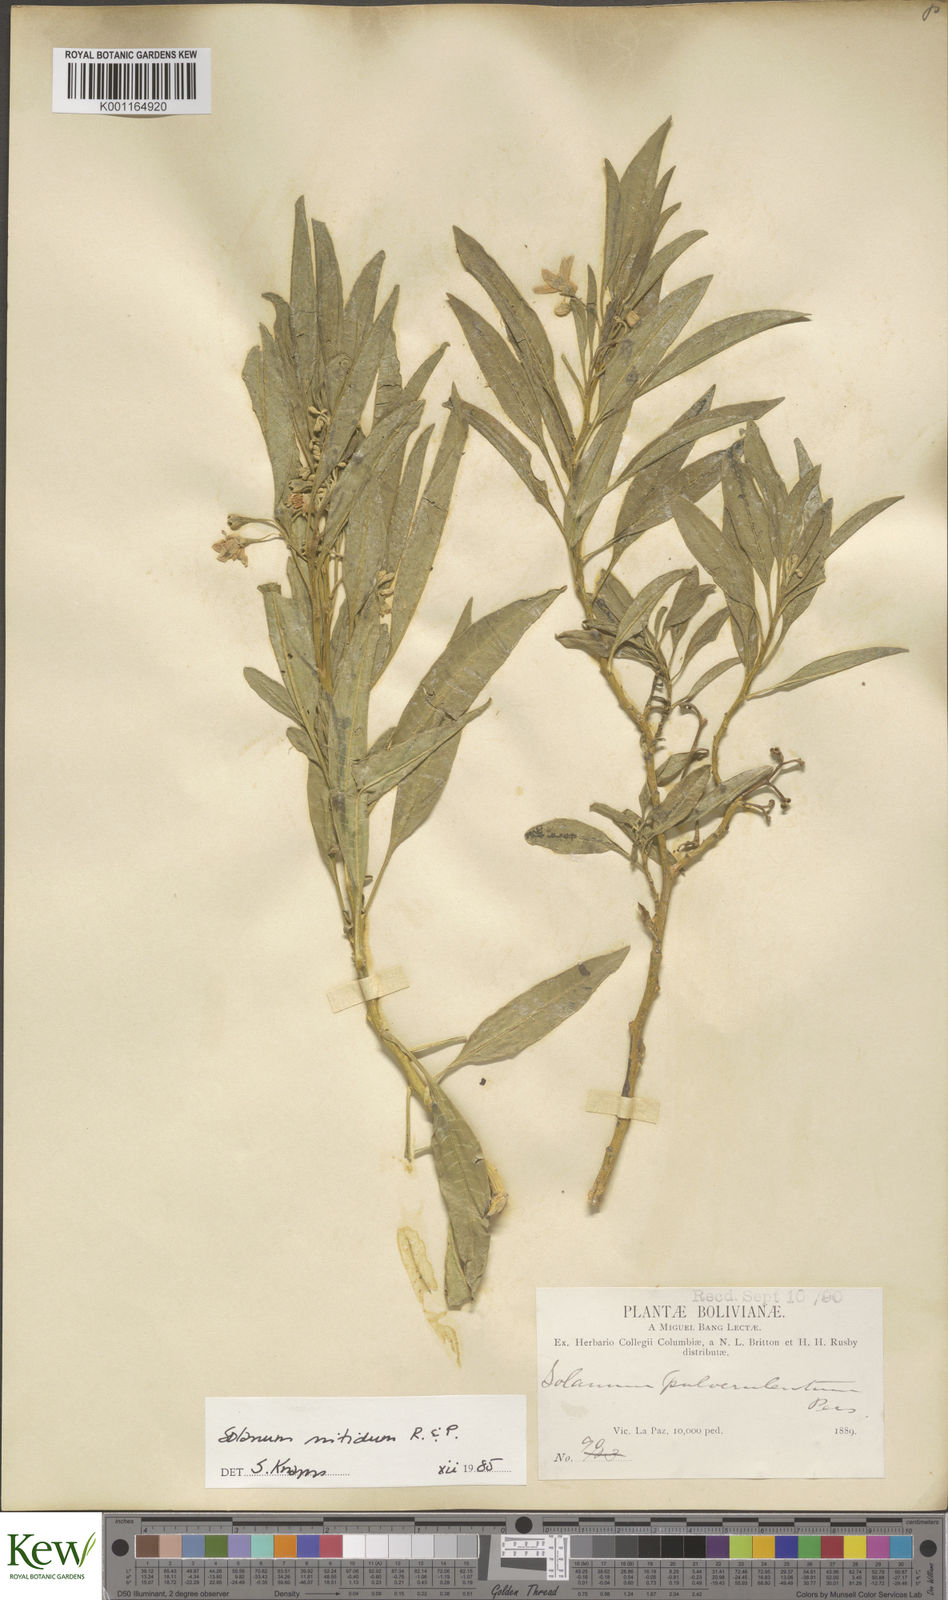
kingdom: Plantae
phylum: Tracheophyta
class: Magnoliopsida
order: Solanales
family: Solanaceae
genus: Solanum
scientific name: Solanum nitidum
